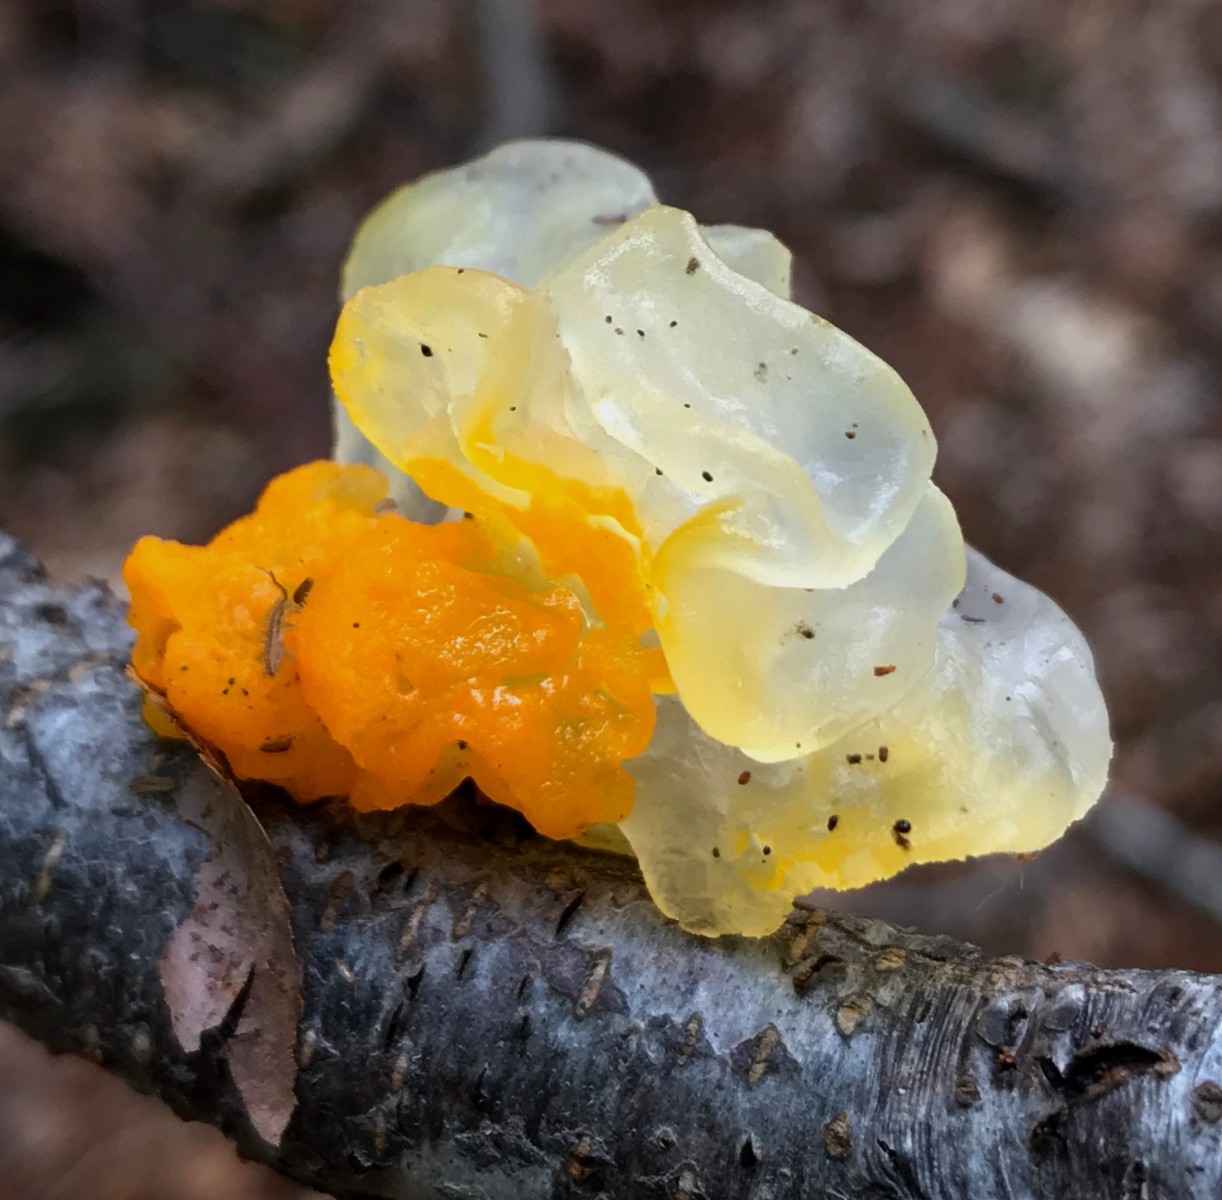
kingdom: Fungi
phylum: Basidiomycota
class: Tremellomycetes
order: Tremellales
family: Tremellaceae
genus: Tremella
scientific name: Tremella mesenterica
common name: gul bævresvamp
